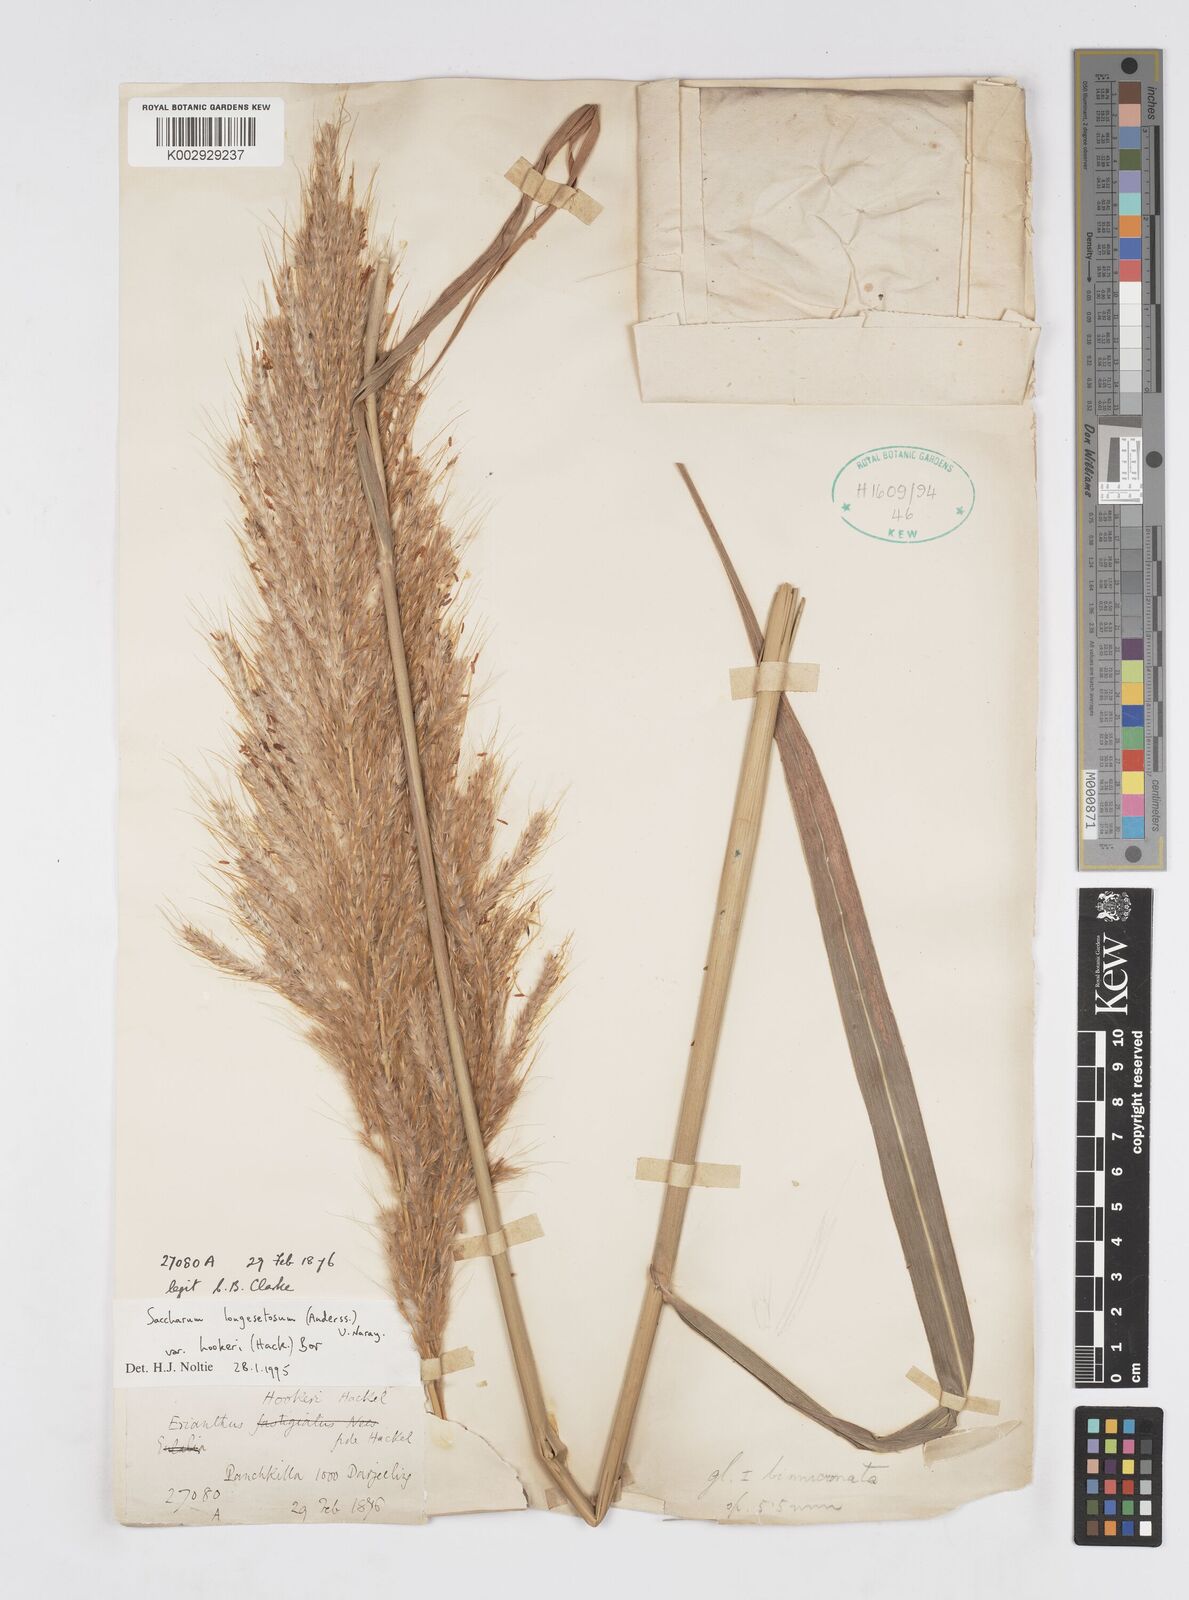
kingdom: Plantae
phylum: Tracheophyta
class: Liliopsida
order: Poales
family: Poaceae
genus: Saccharum
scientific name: Saccharum longesetosum
